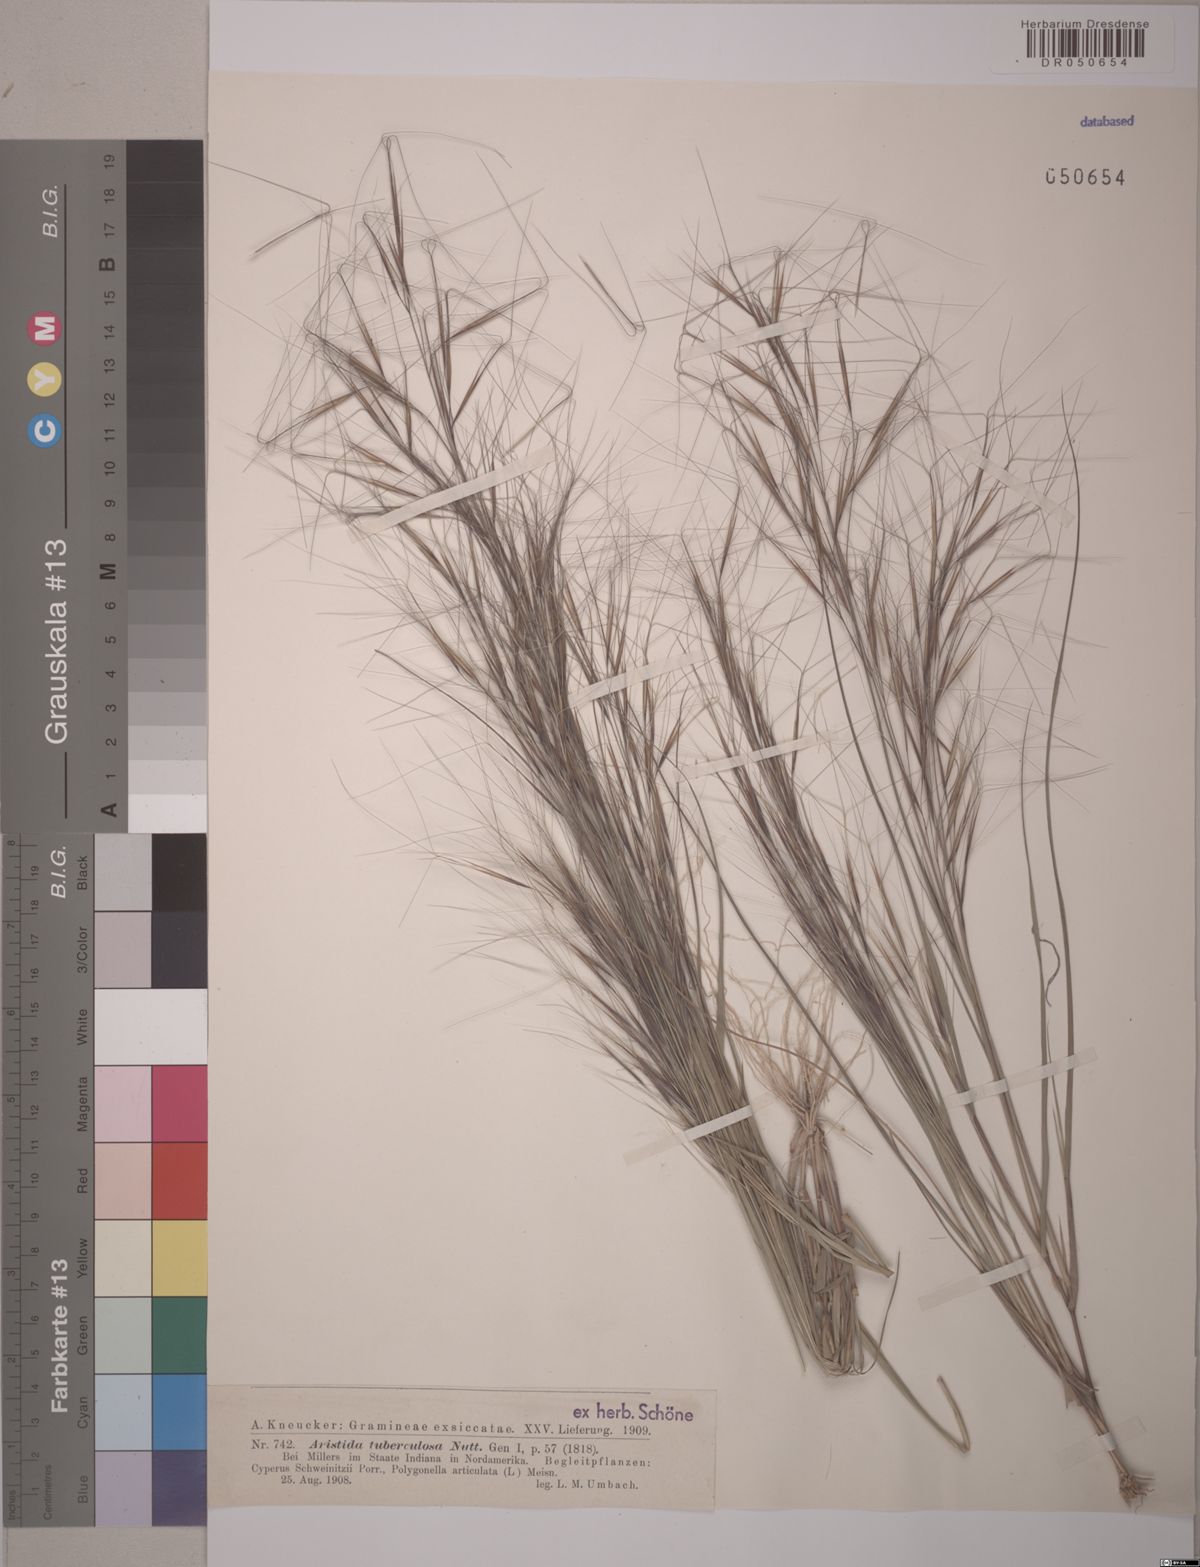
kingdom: Plantae
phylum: Tracheophyta
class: Liliopsida
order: Poales
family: Poaceae
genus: Aristida
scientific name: Aristida tuberculosa
